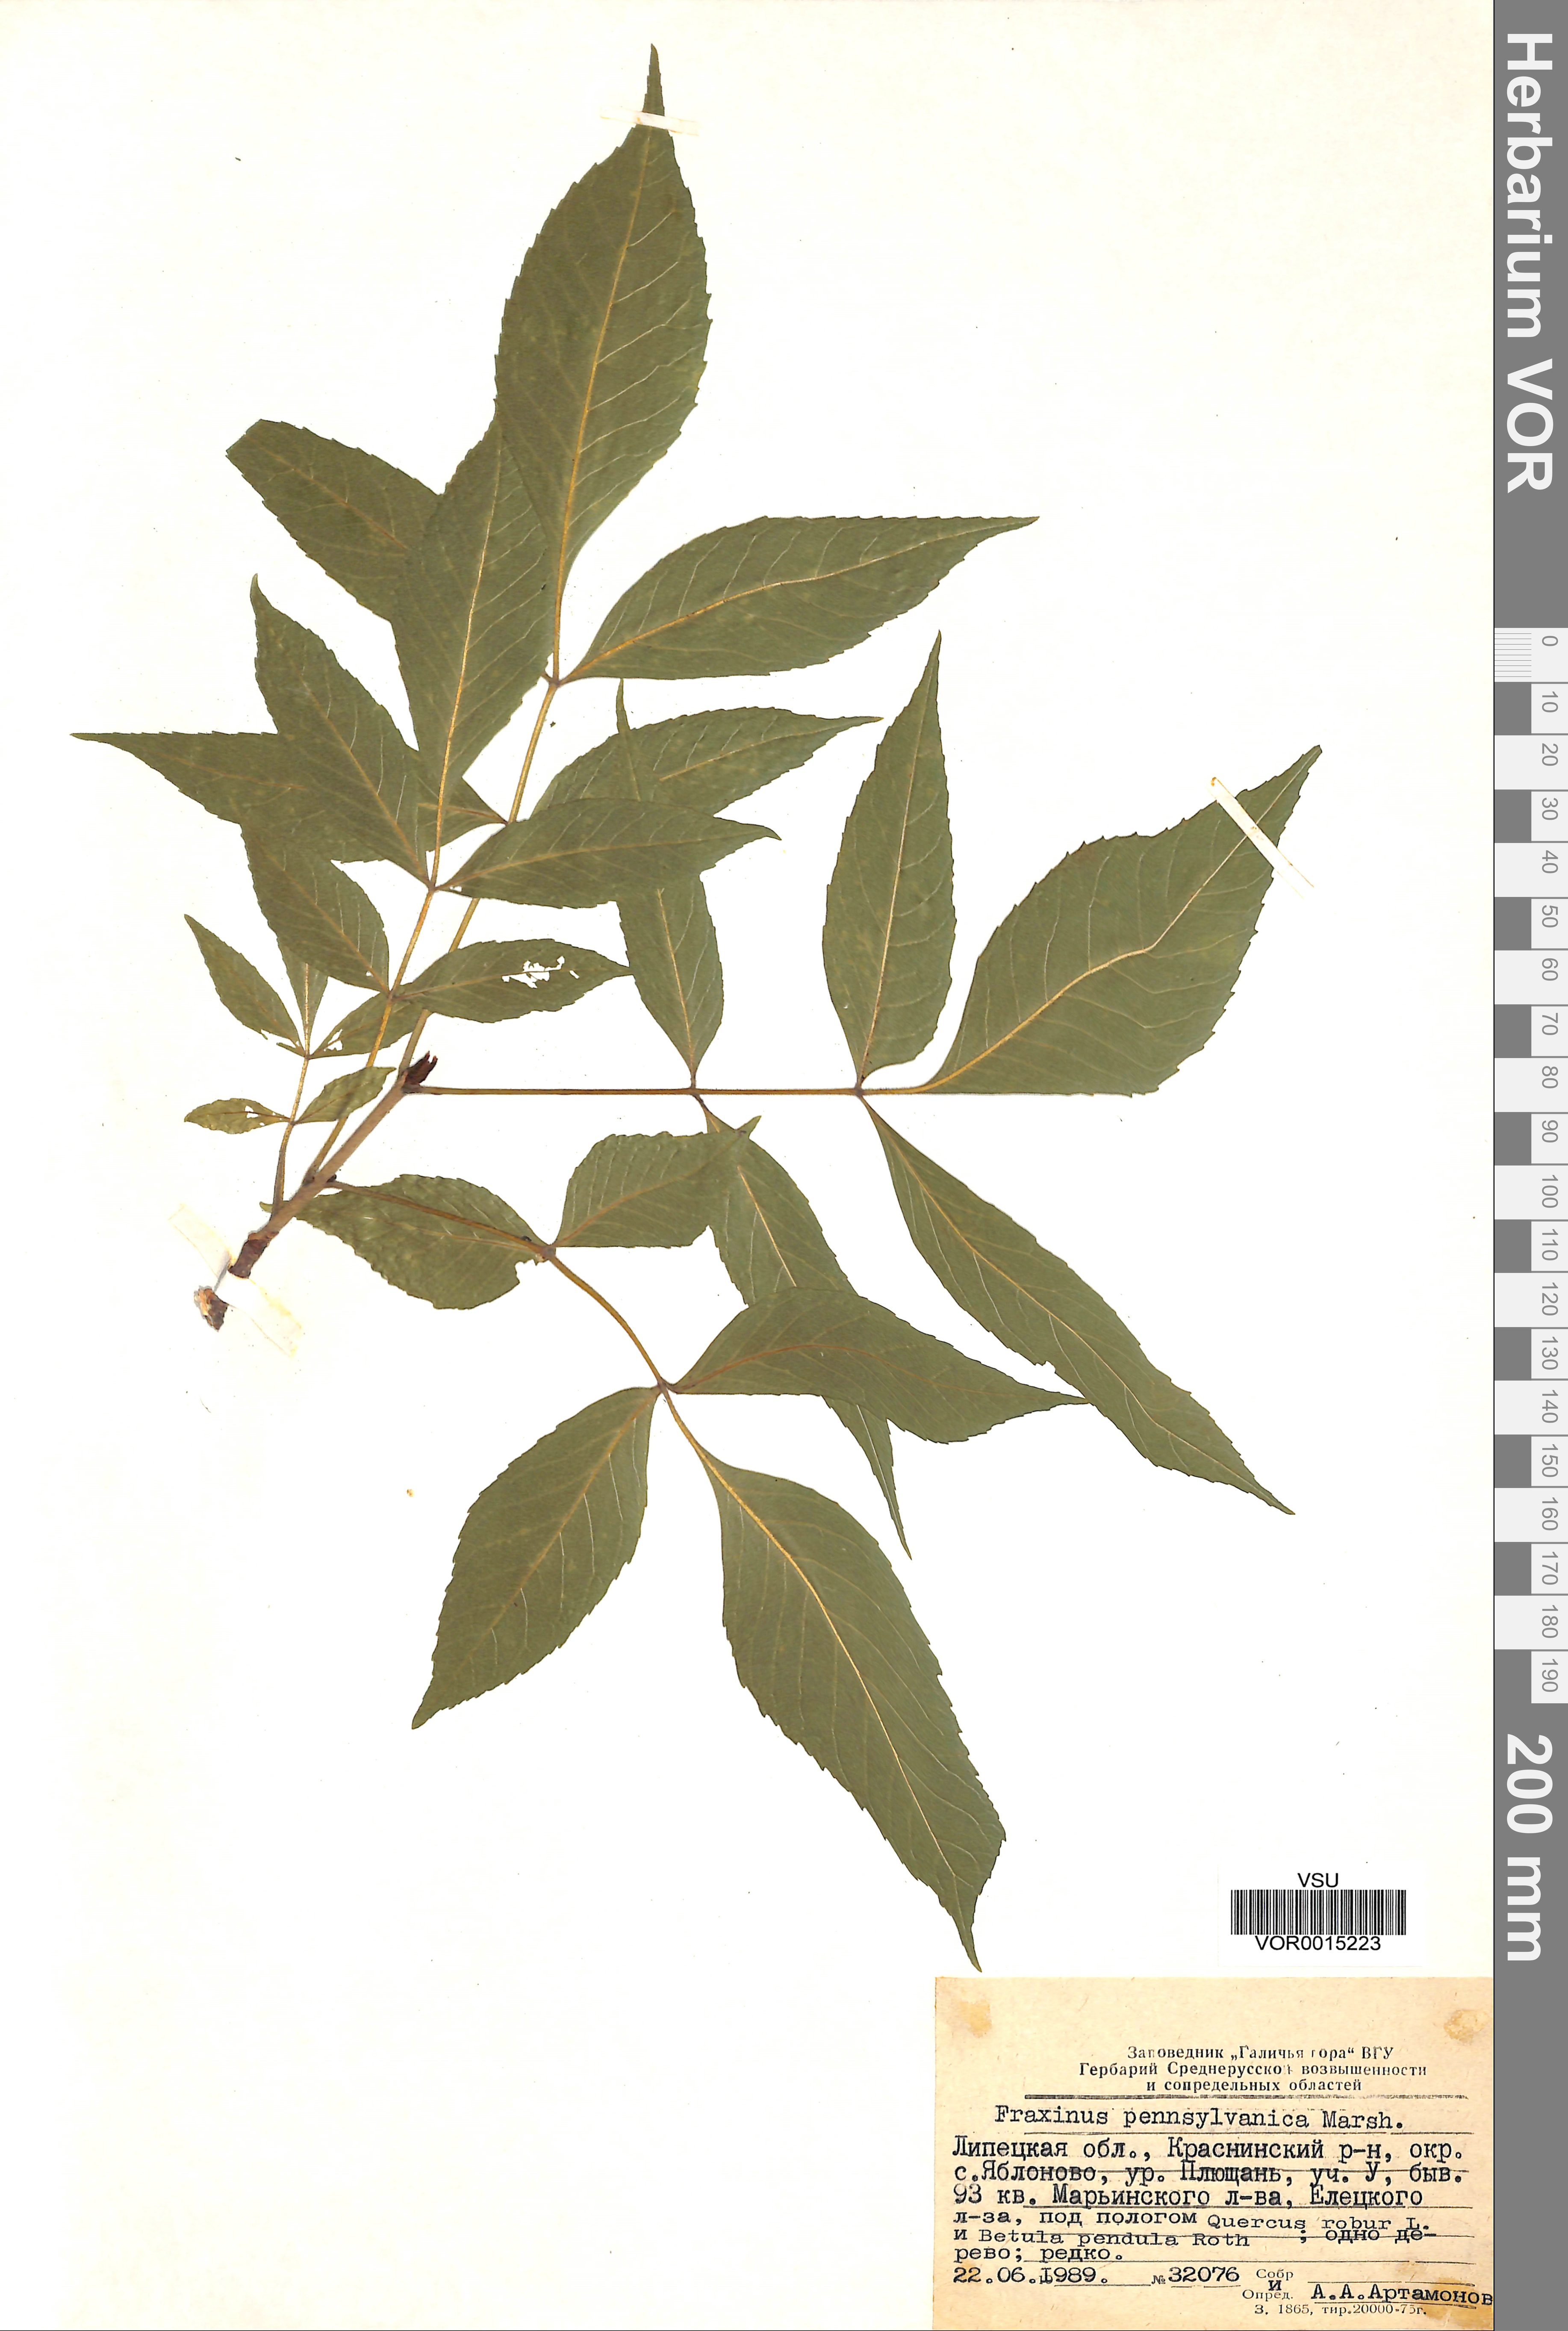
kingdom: Plantae
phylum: Tracheophyta
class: Magnoliopsida
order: Lamiales
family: Oleaceae
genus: Fraxinus
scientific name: Fraxinus pennsylvanica
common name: Green ash
